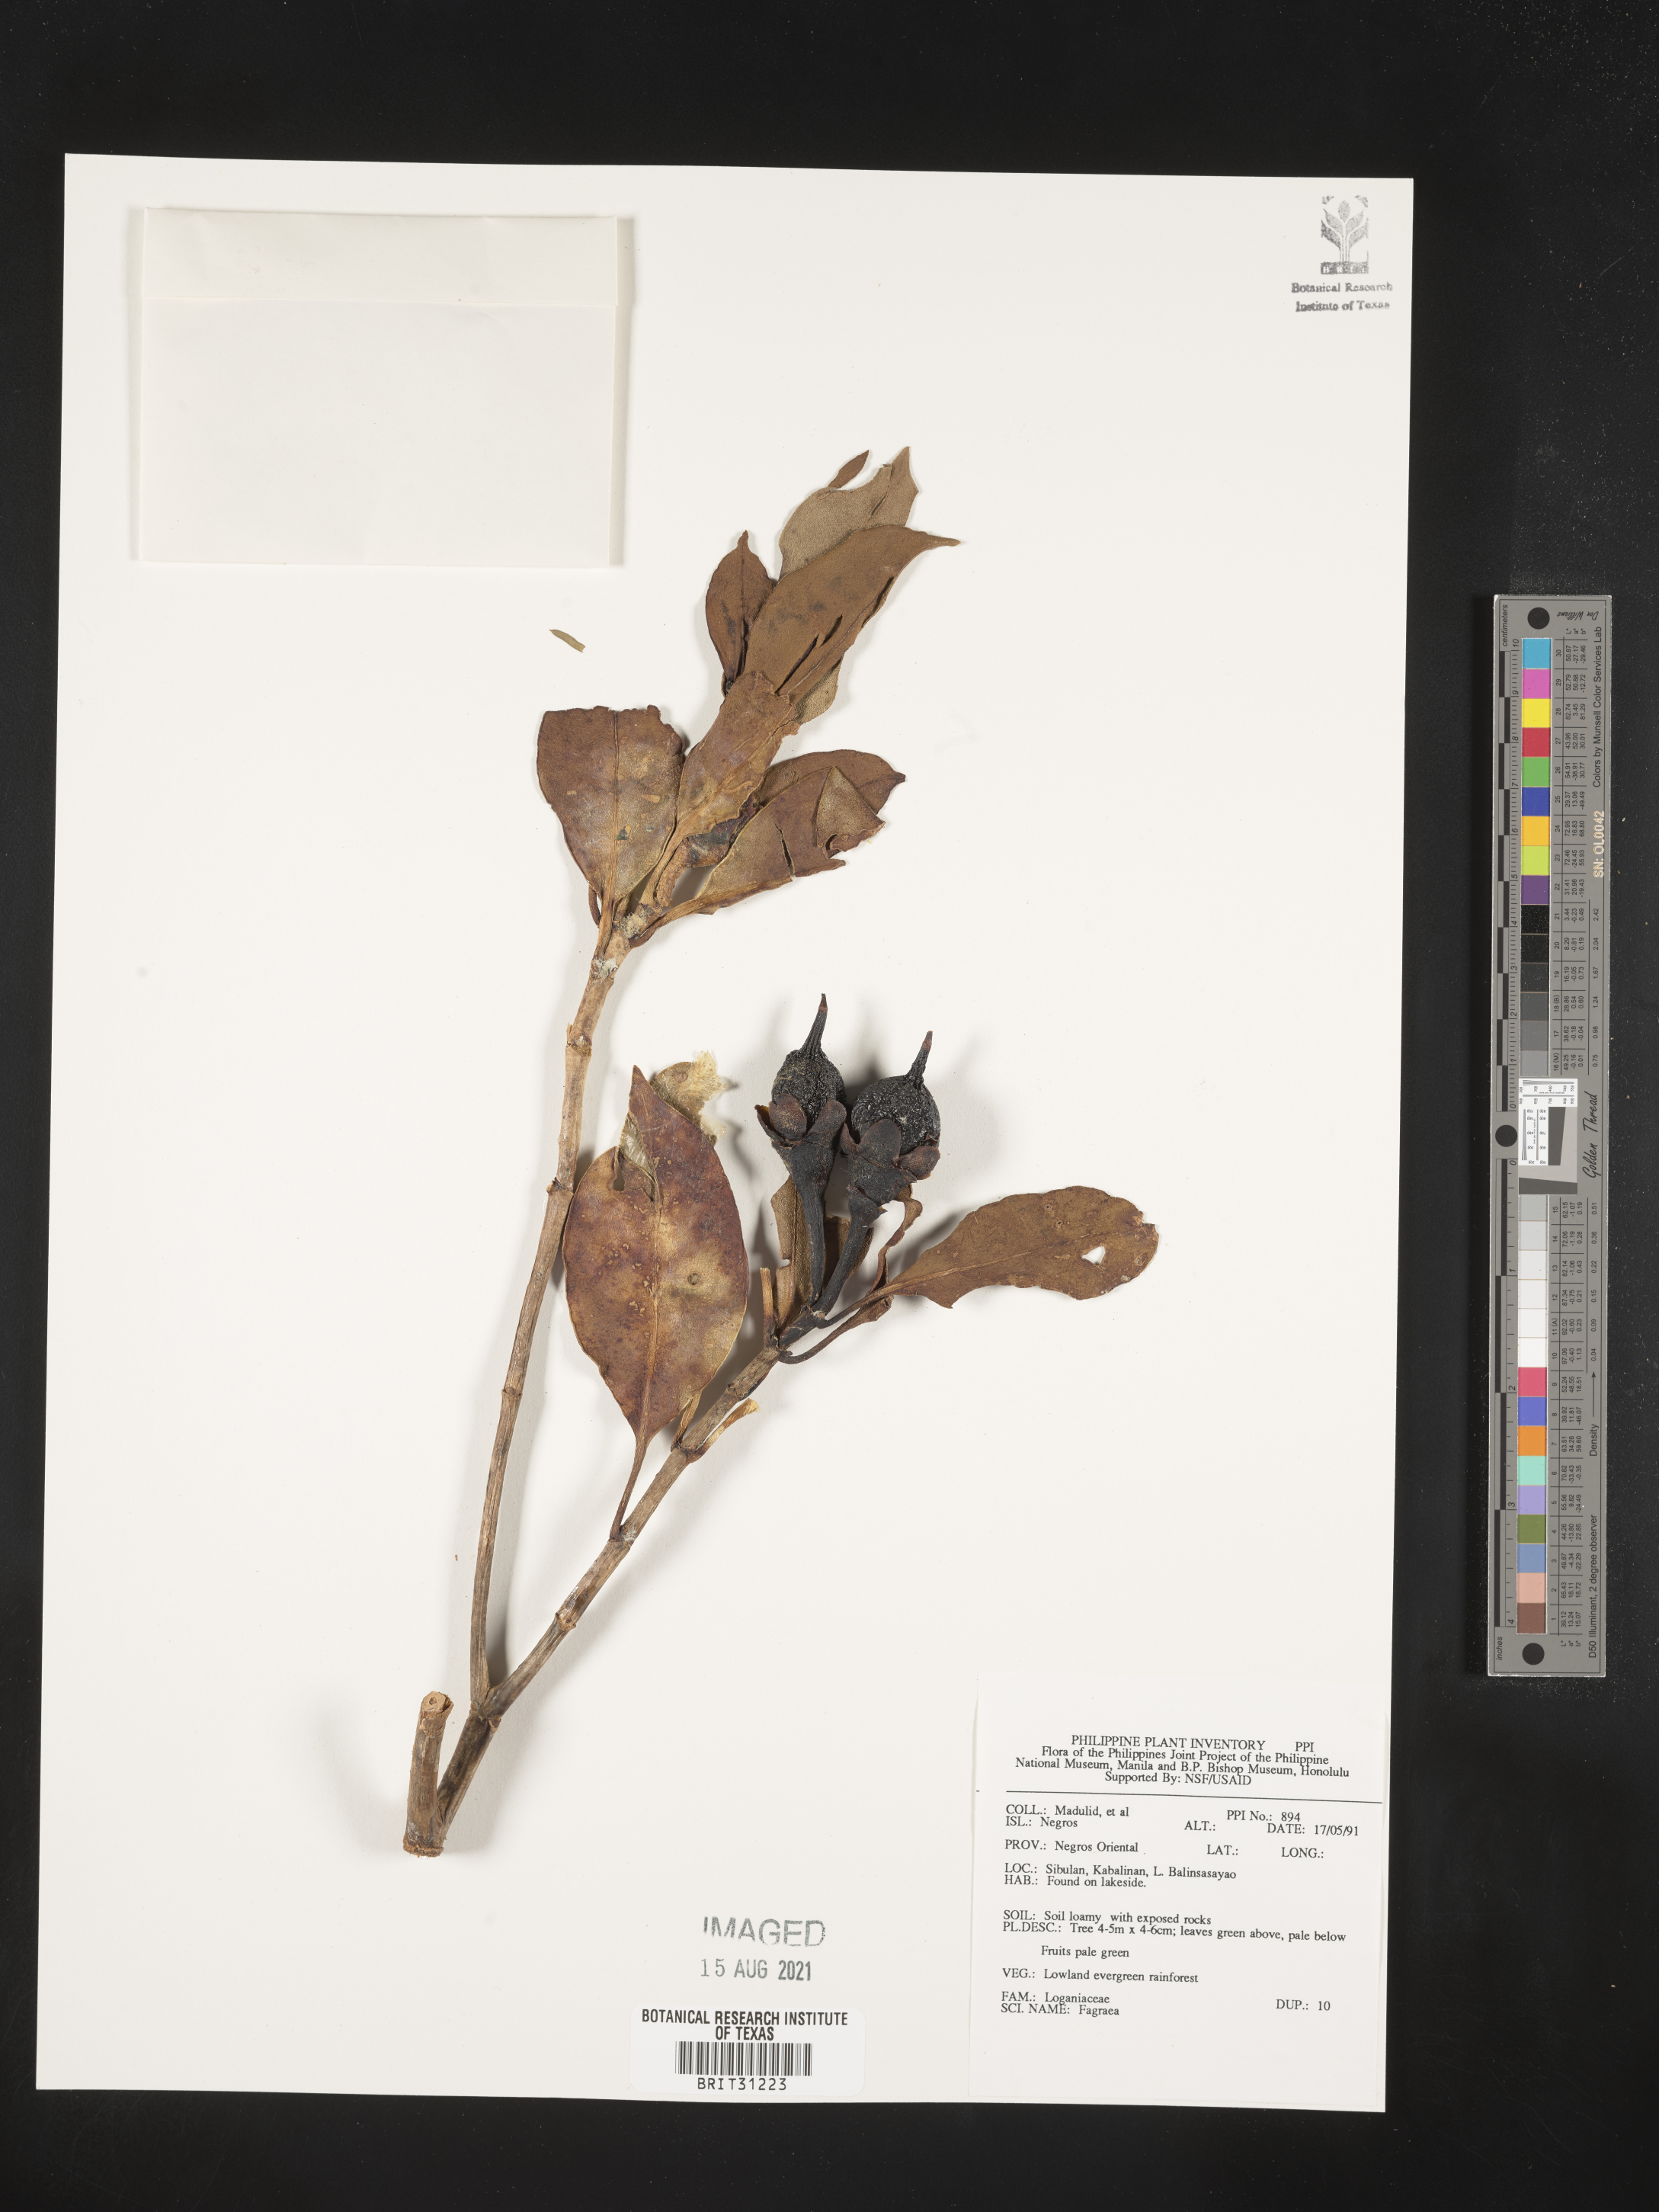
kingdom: Plantae
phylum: Tracheophyta
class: Magnoliopsida
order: Gentianales
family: Gentianaceae
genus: Fagraea
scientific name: Fagraea
